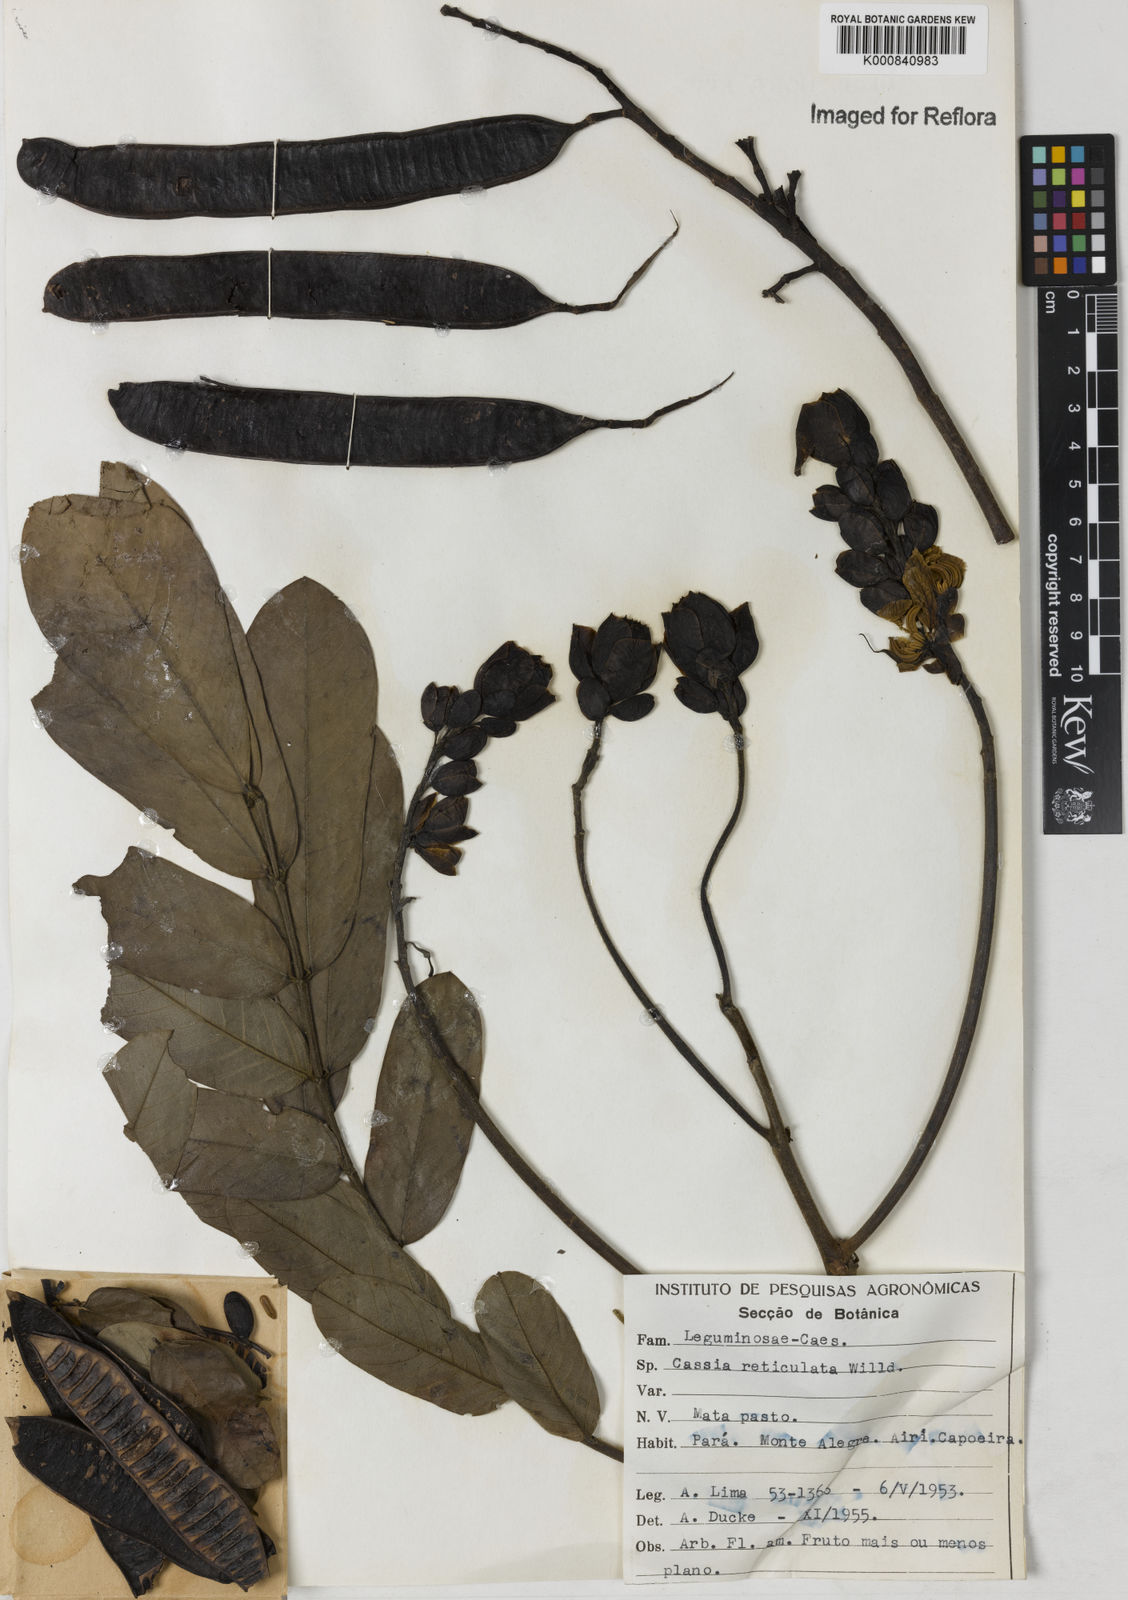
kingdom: Plantae
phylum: Tracheophyta
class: Magnoliopsida
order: Fabales
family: Fabaceae
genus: Senna
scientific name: Senna reticulata
